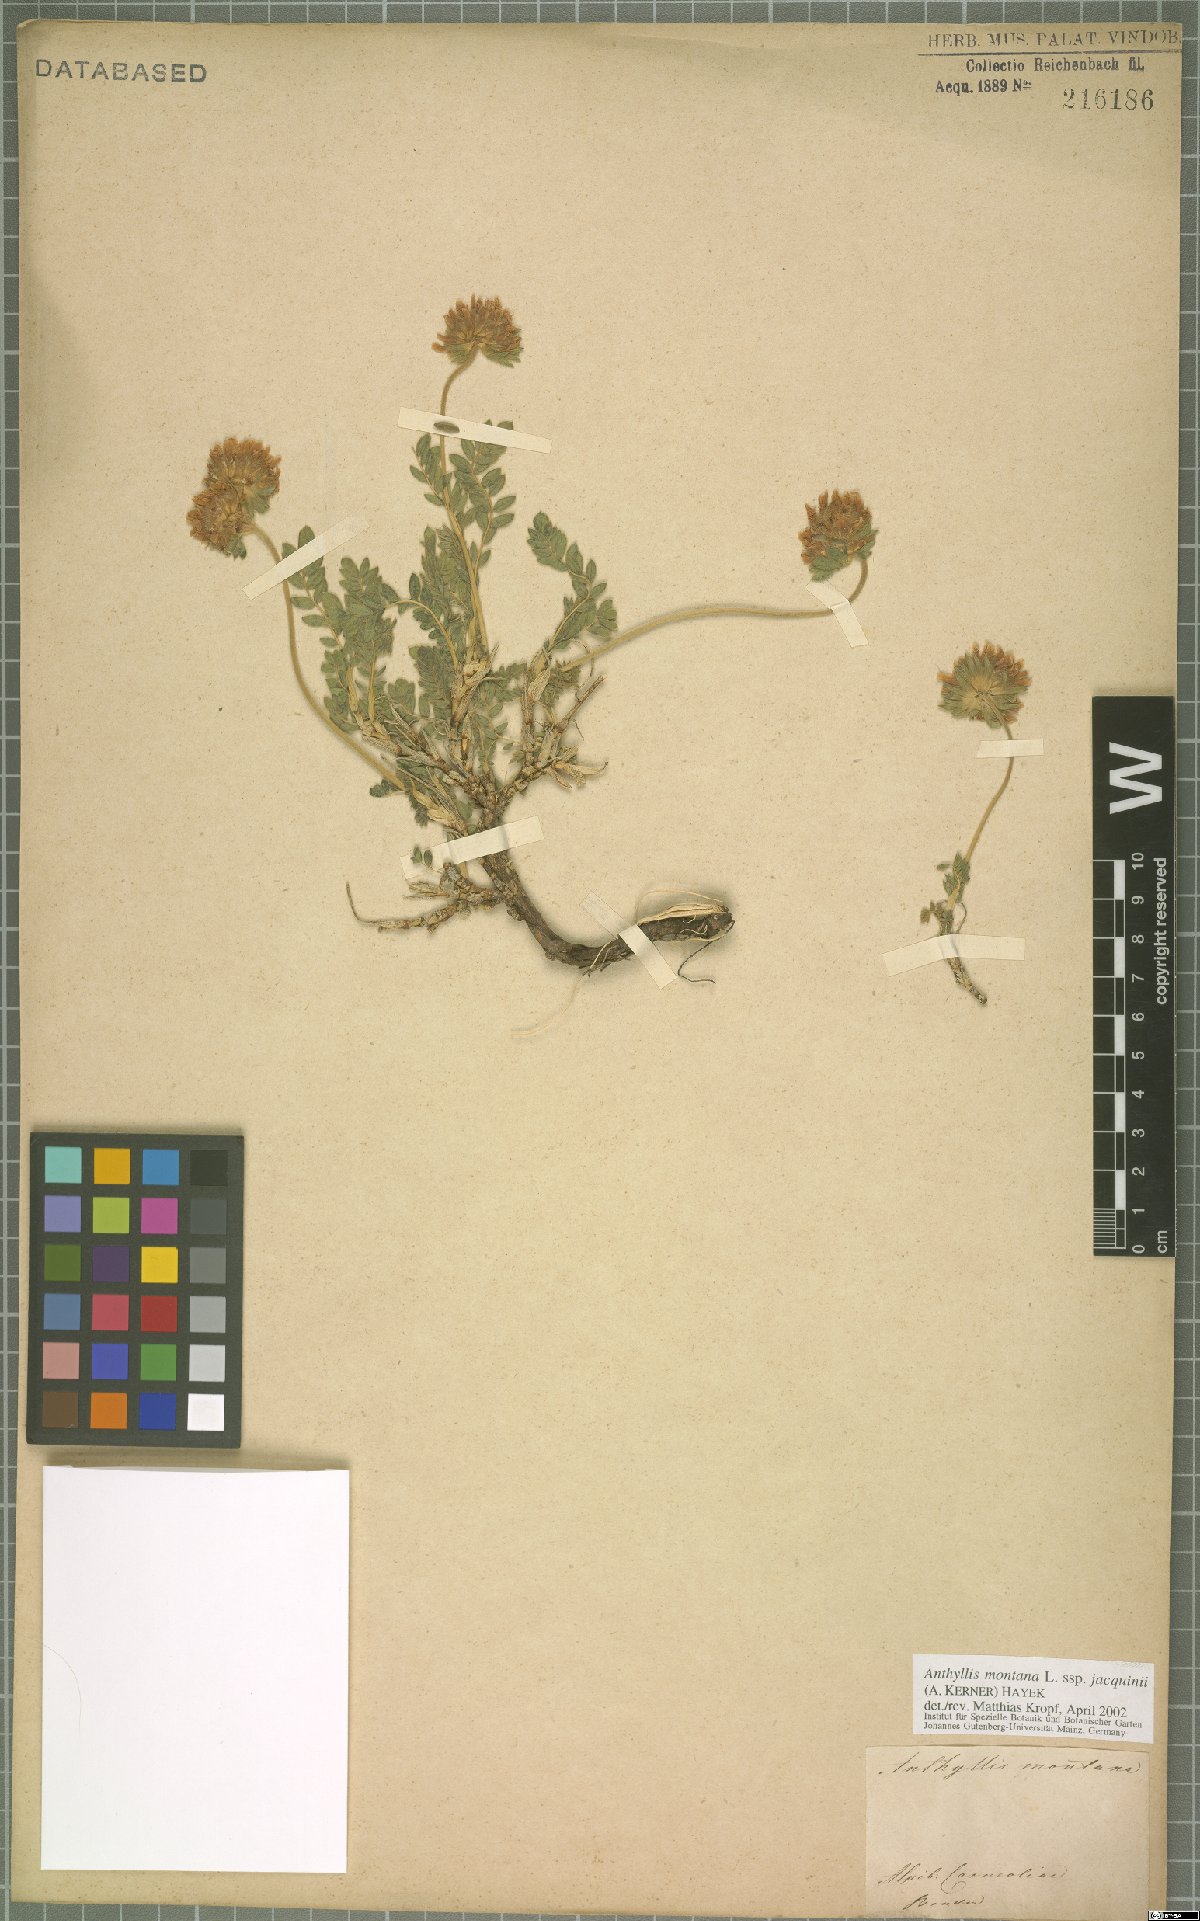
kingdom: Plantae
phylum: Tracheophyta
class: Magnoliopsida
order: Fabales
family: Fabaceae
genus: Anthyllis
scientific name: Anthyllis montana
